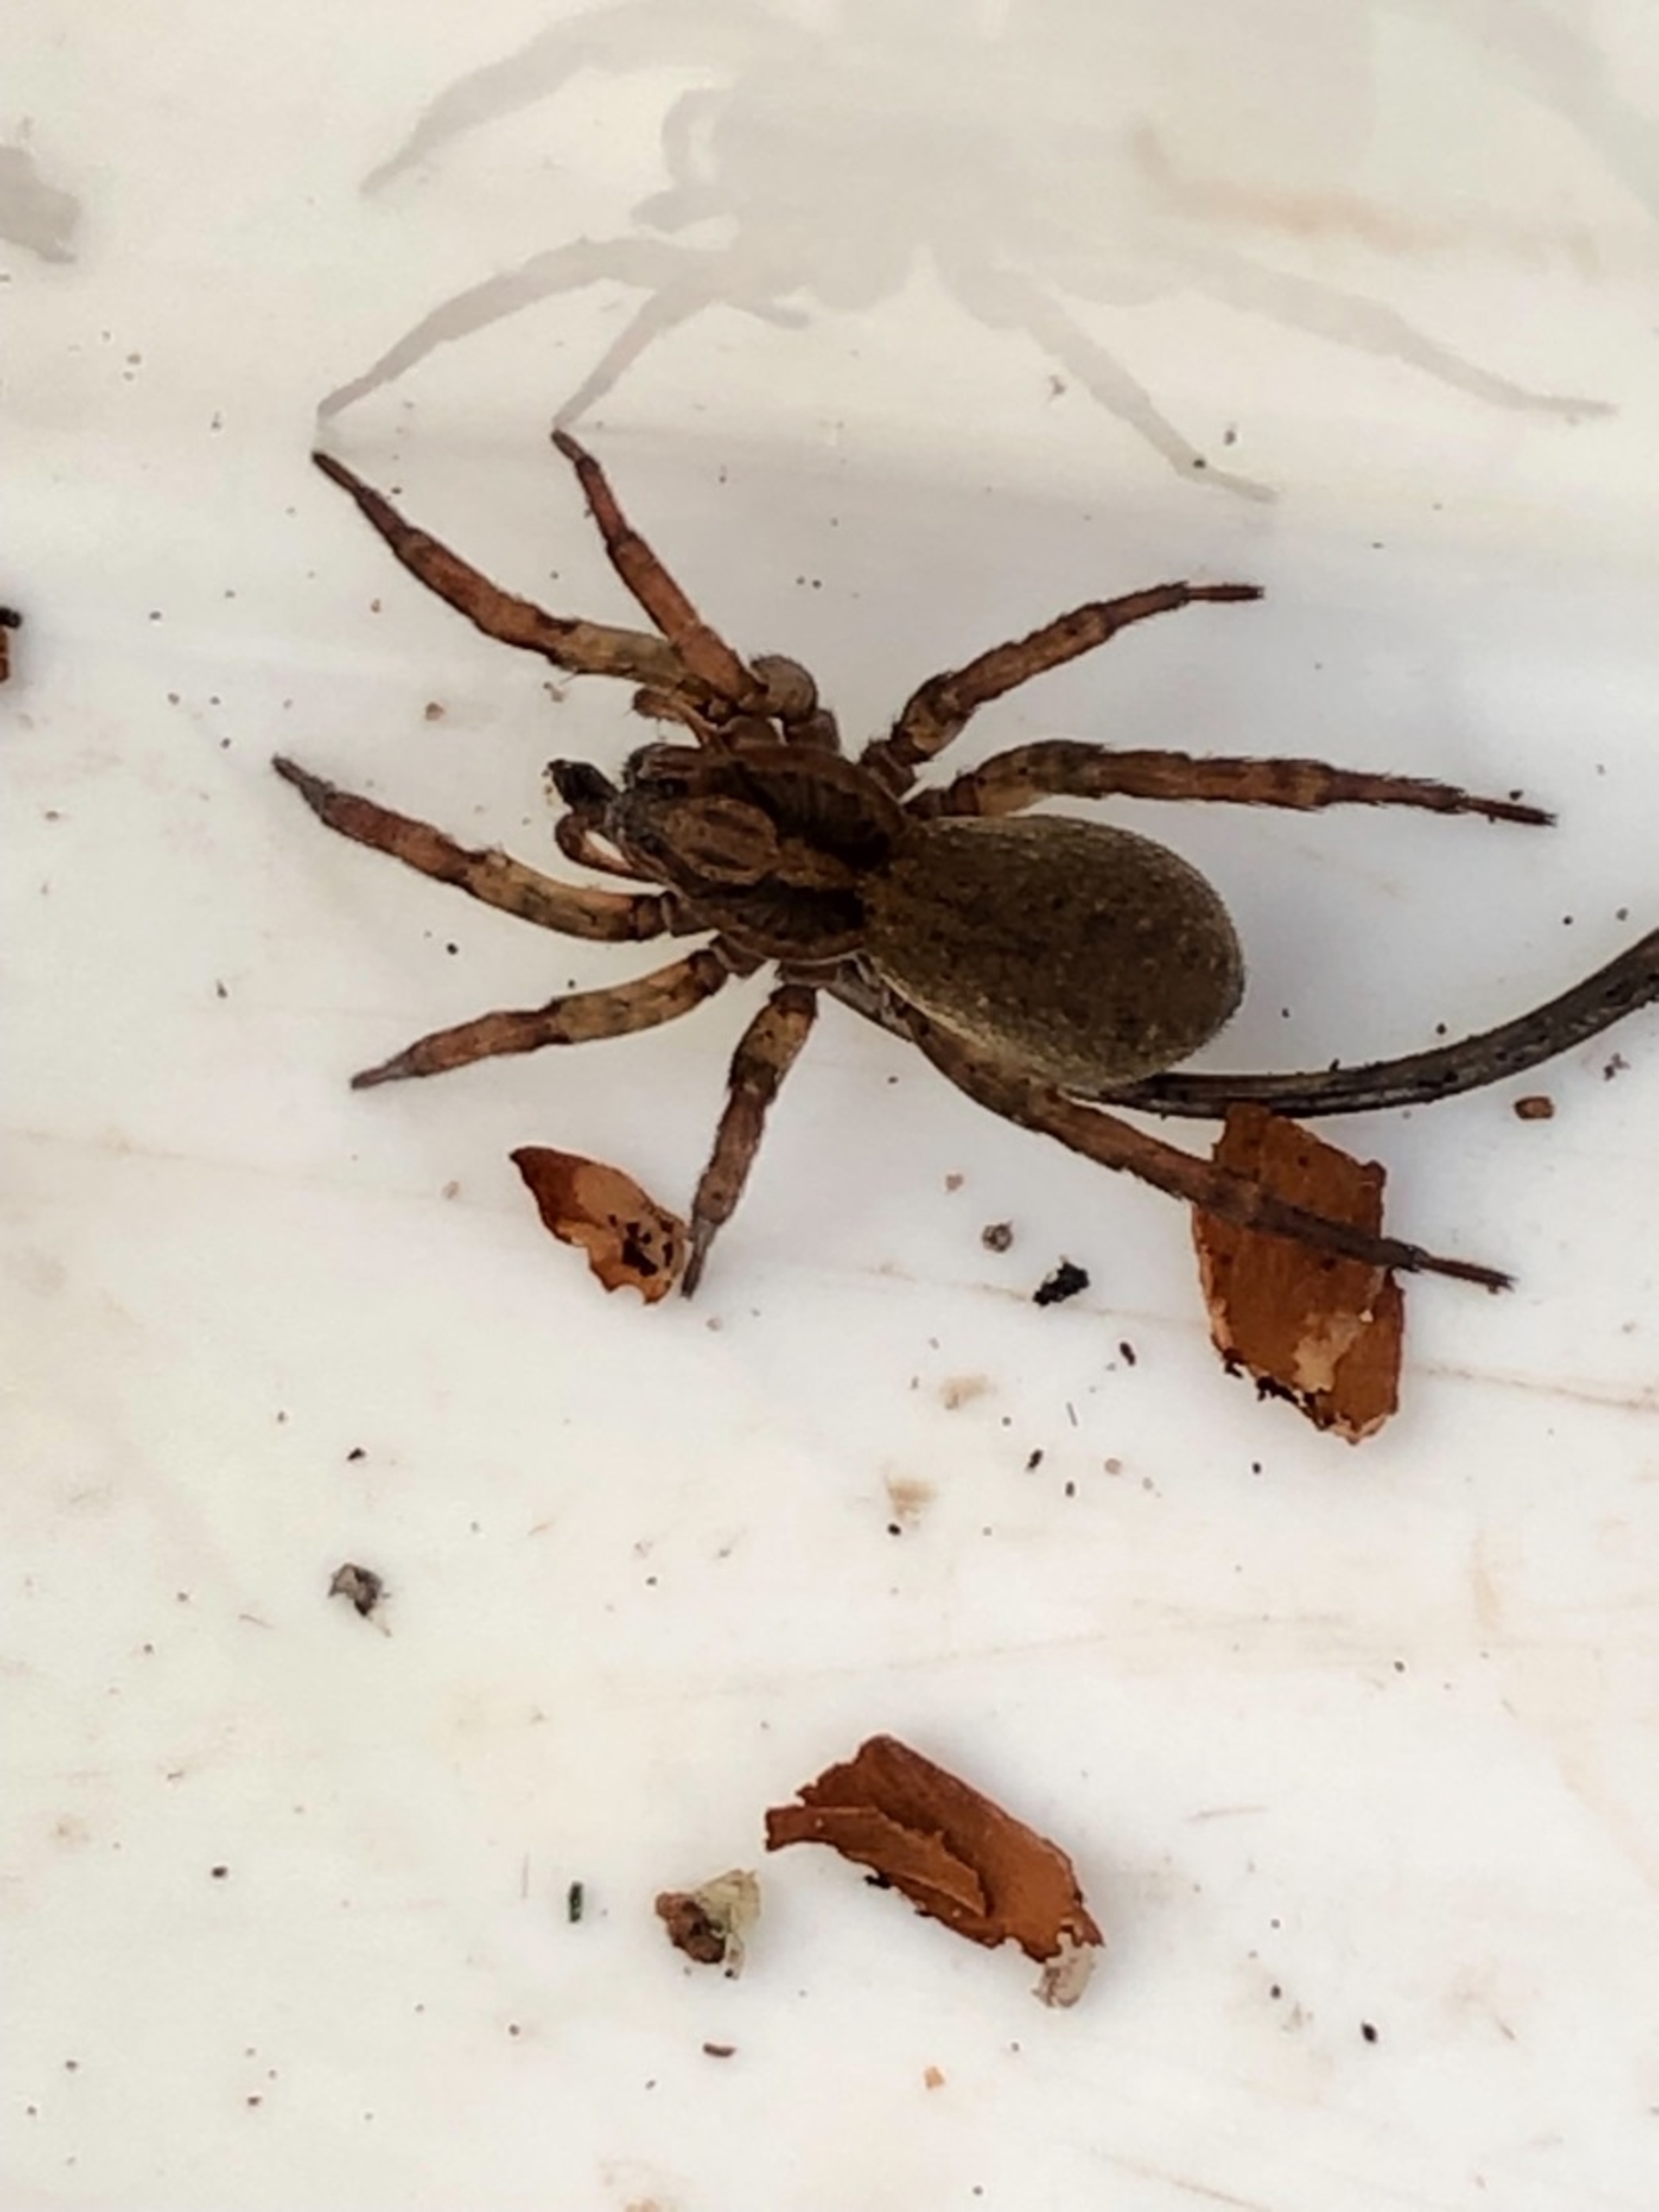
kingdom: Animalia
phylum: Arthropoda
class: Arachnida
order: Araneae
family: Lycosidae
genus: Trochosa
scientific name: Trochosa terricola
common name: Almindelig bjørneedderkop
